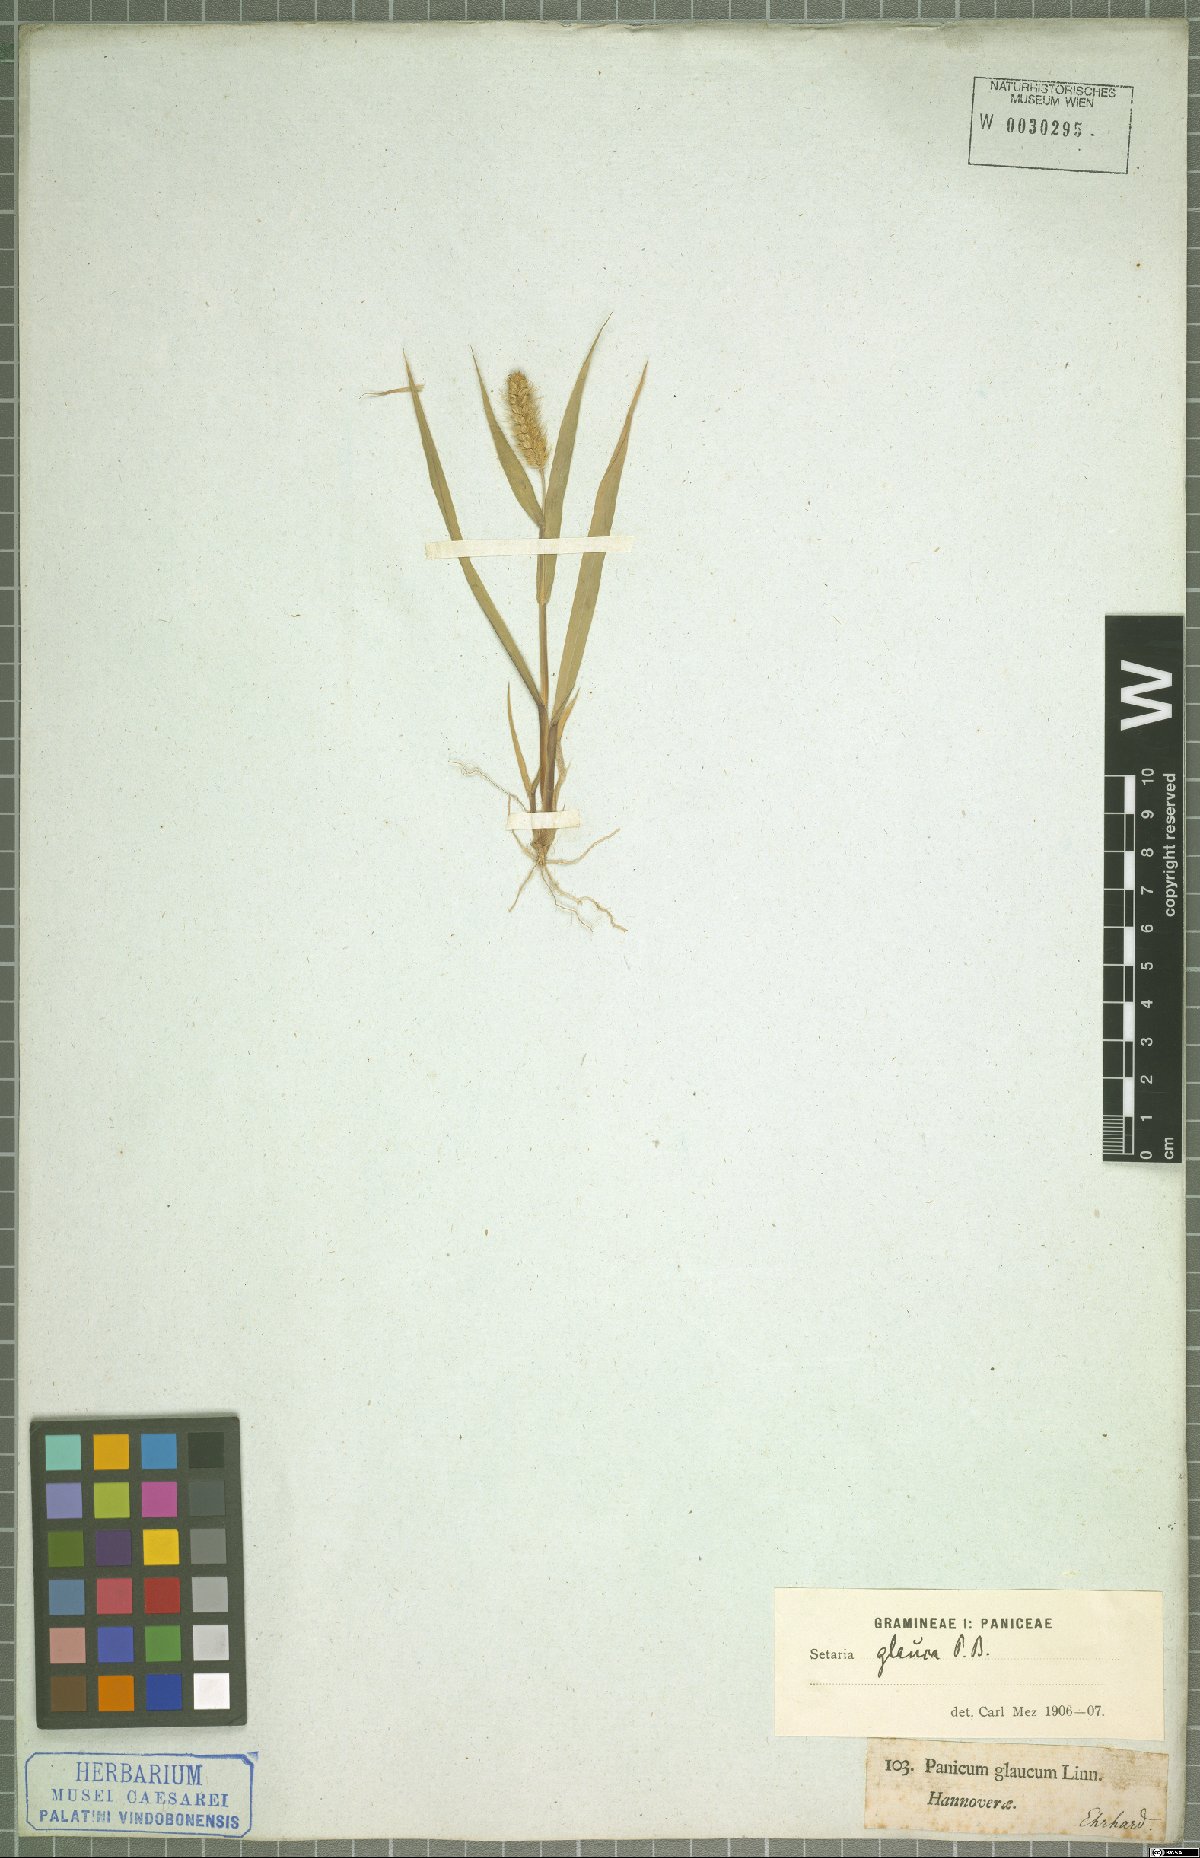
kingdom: Plantae
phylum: Tracheophyta
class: Liliopsida
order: Poales
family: Poaceae
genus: Setaria
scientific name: Setaria pumila
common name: Yellow bristle-grass
